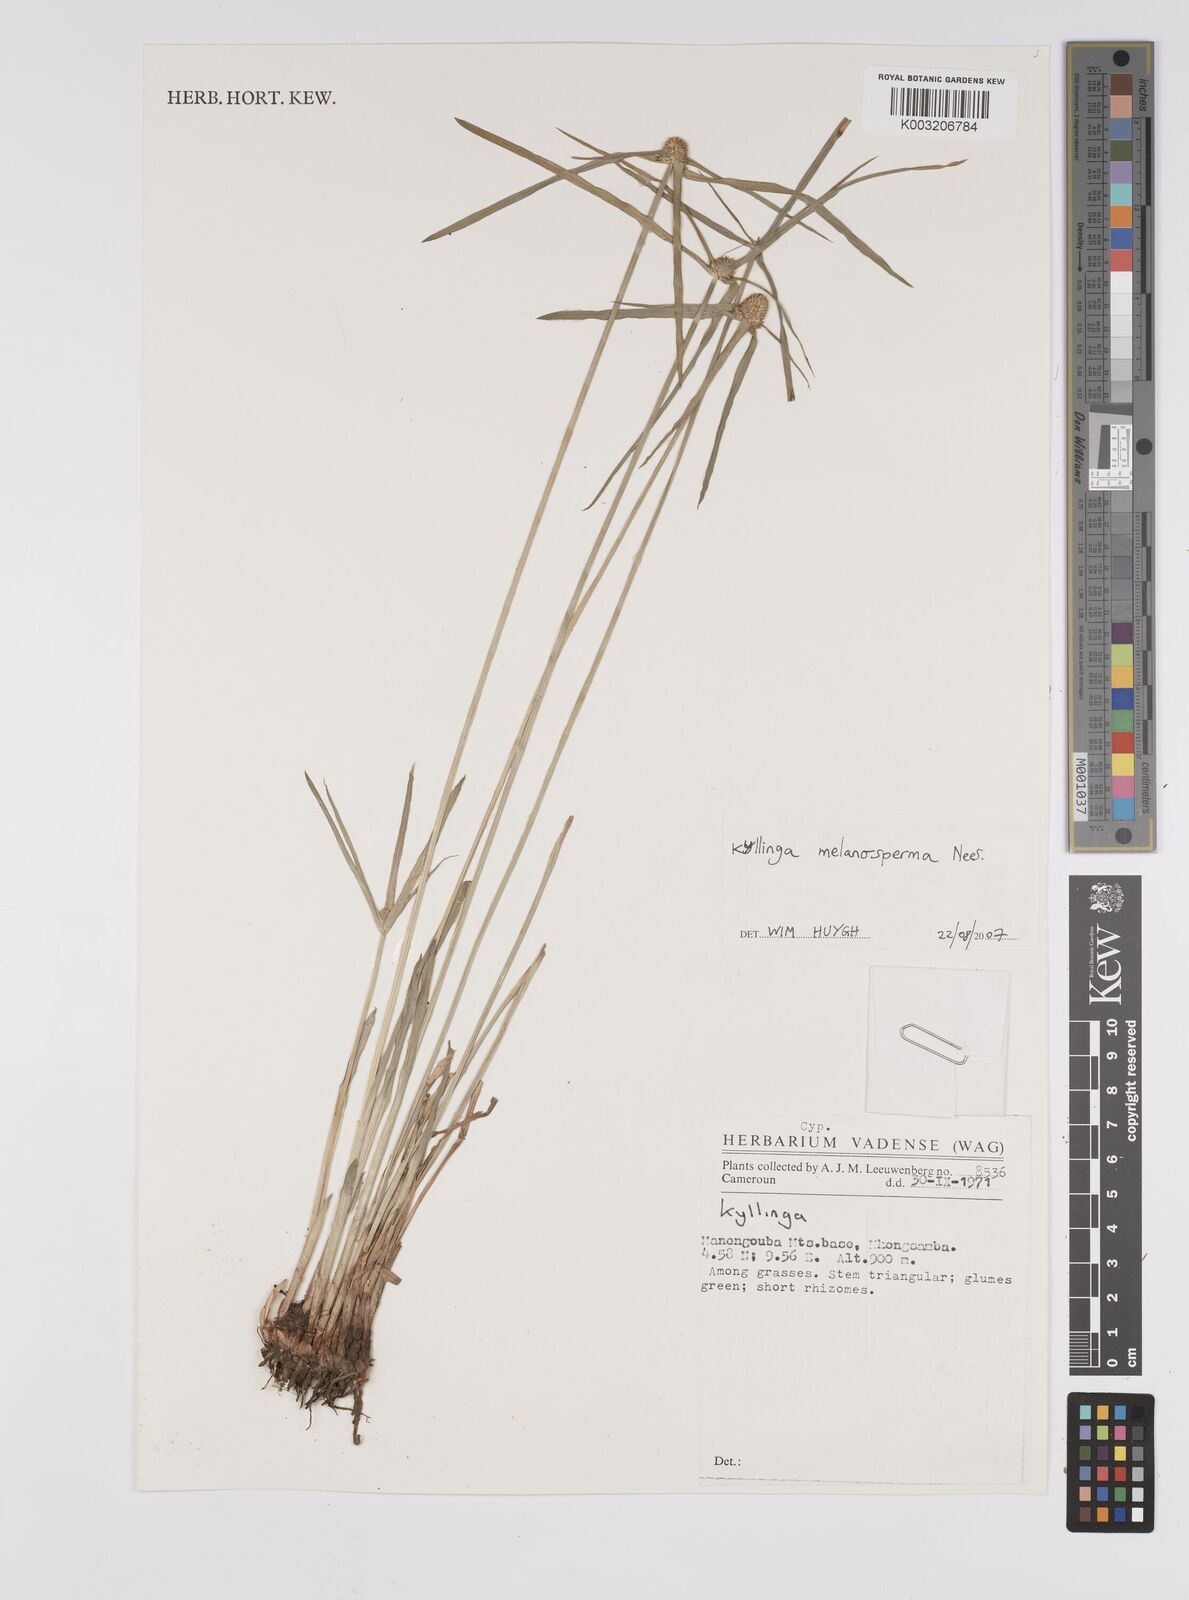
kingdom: Plantae
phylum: Tracheophyta
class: Liliopsida
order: Poales
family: Cyperaceae
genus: Cyperus
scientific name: Cyperus melanospermus
